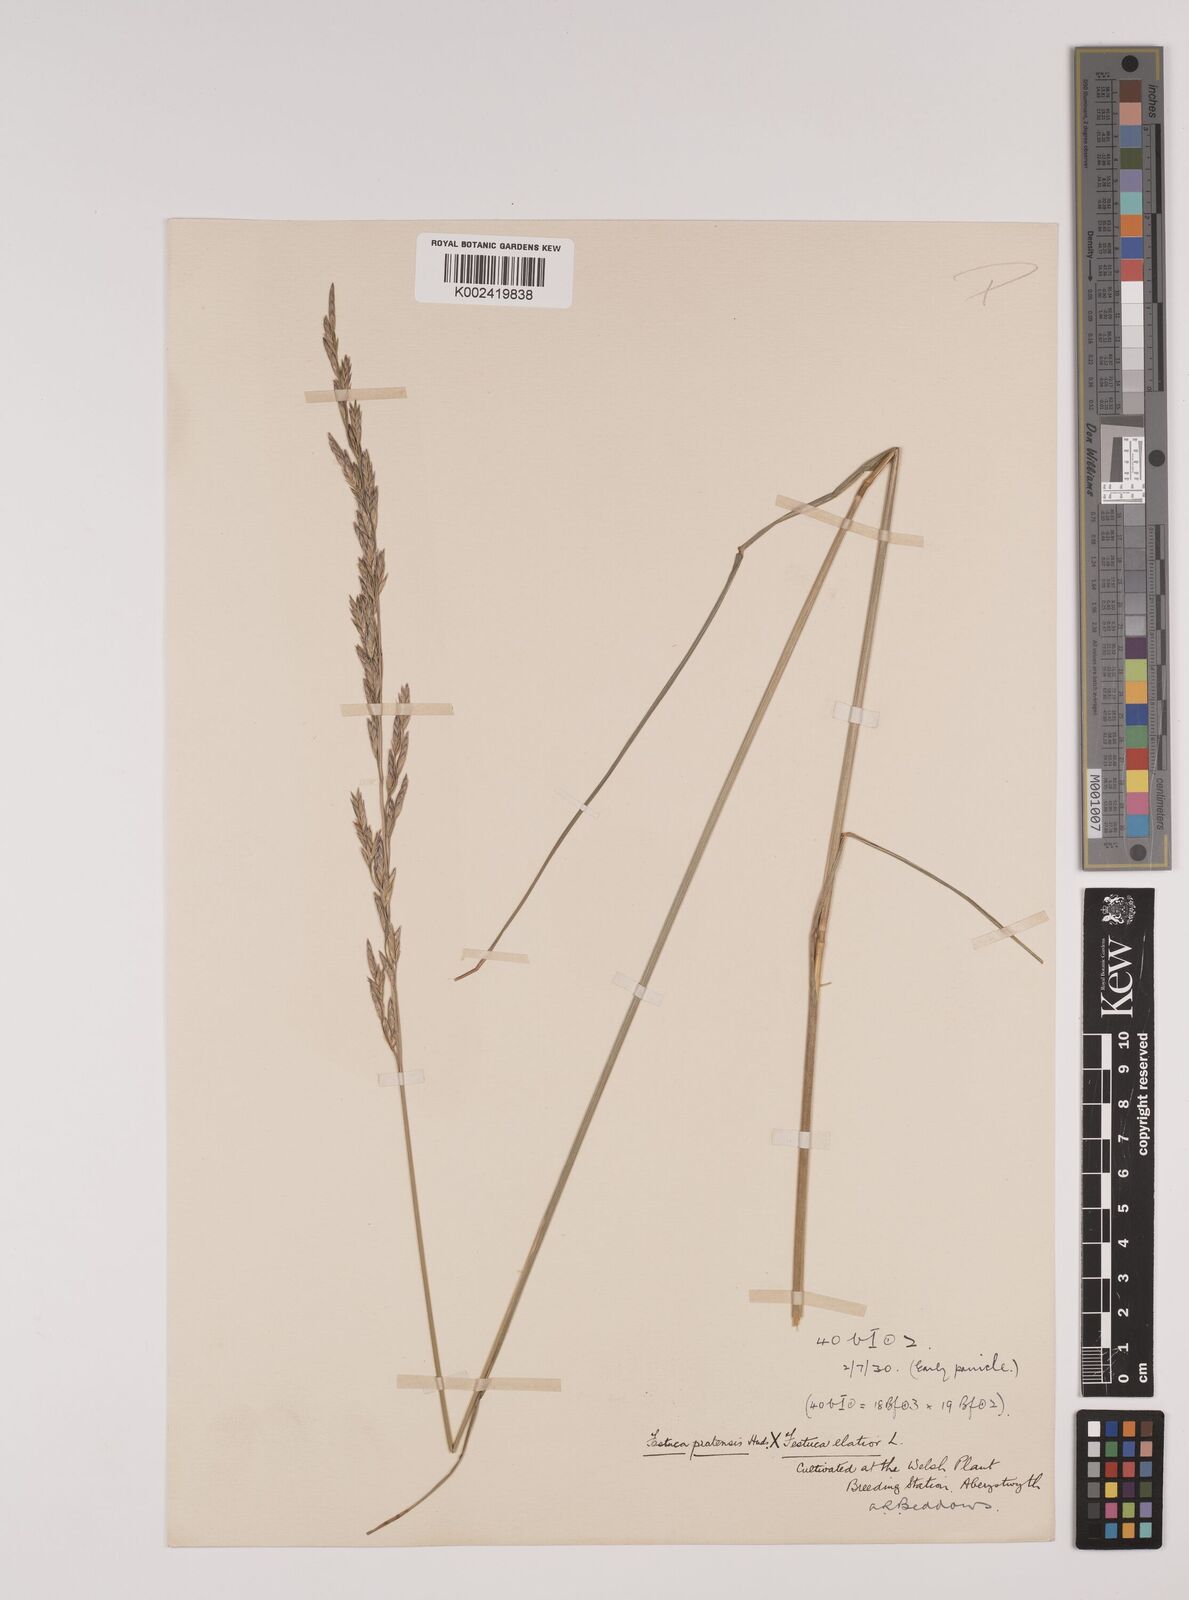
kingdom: Plantae
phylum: Tracheophyta
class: Liliopsida
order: Poales
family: Poaceae
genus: Festuca
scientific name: Festuca rubra
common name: Red fescue
